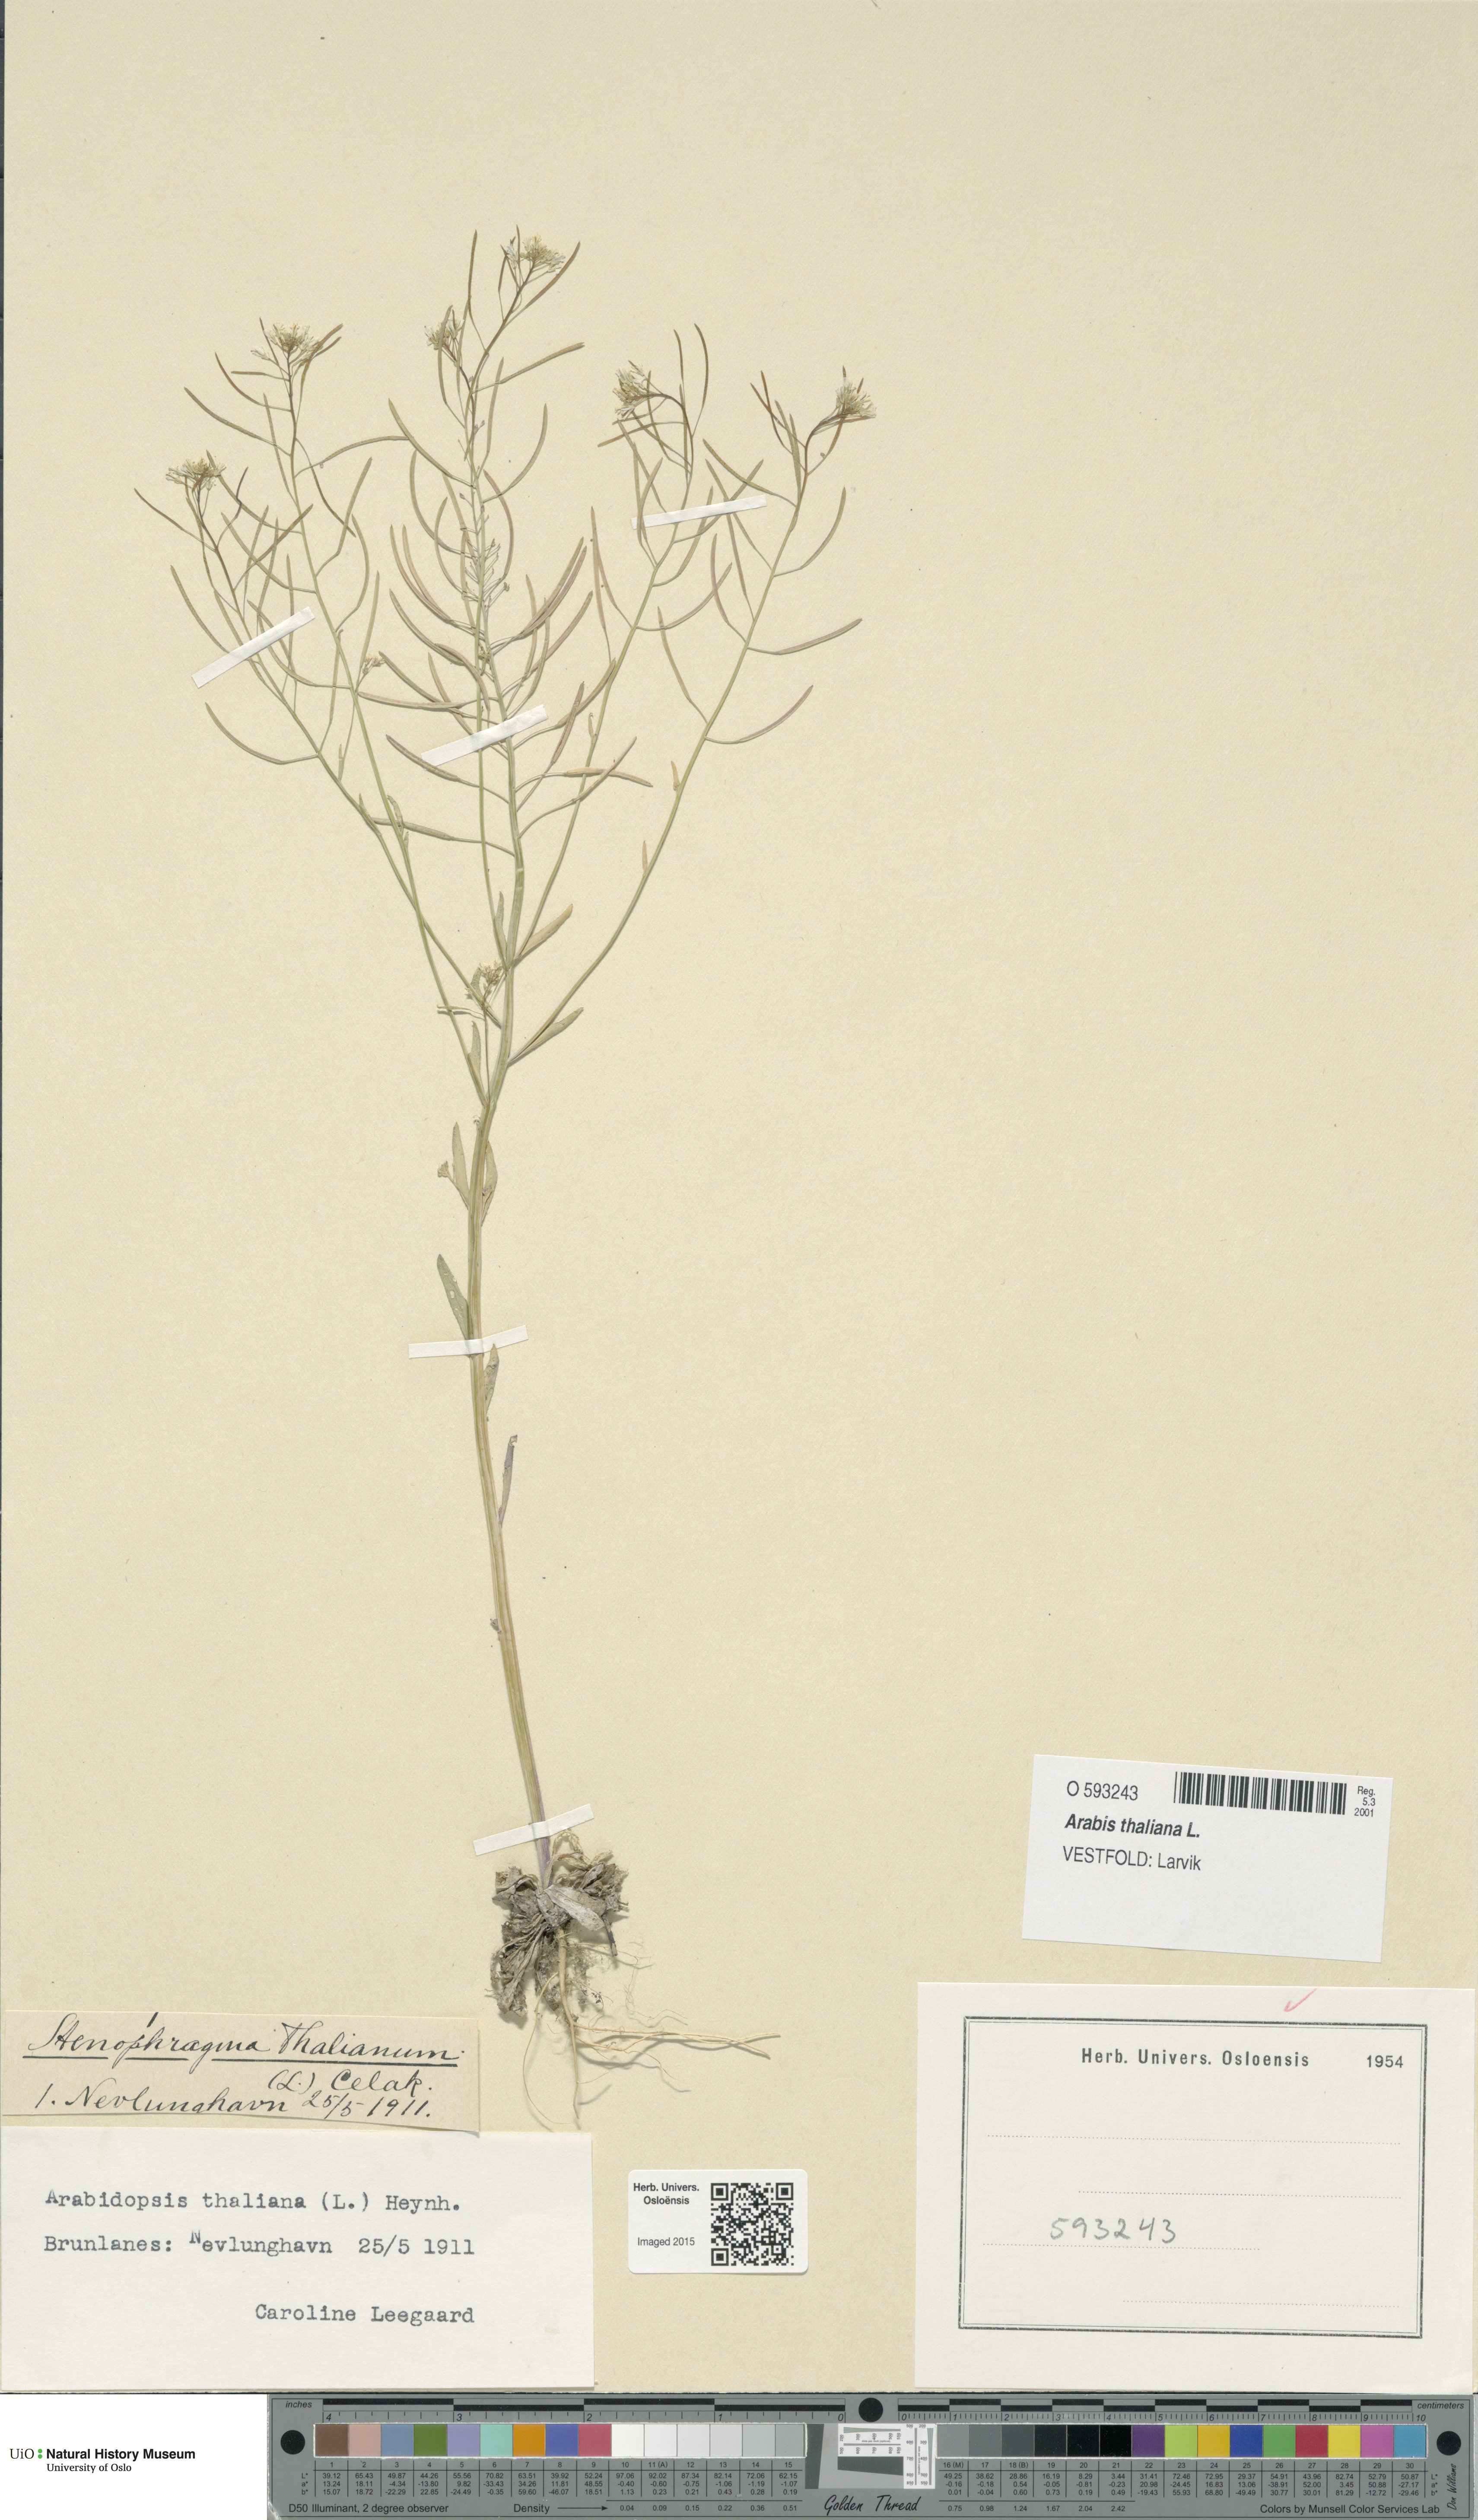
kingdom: Plantae
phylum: Tracheophyta
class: Magnoliopsida
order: Brassicales
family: Brassicaceae
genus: Arabidopsis
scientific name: Arabidopsis thaliana
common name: Thale cress
